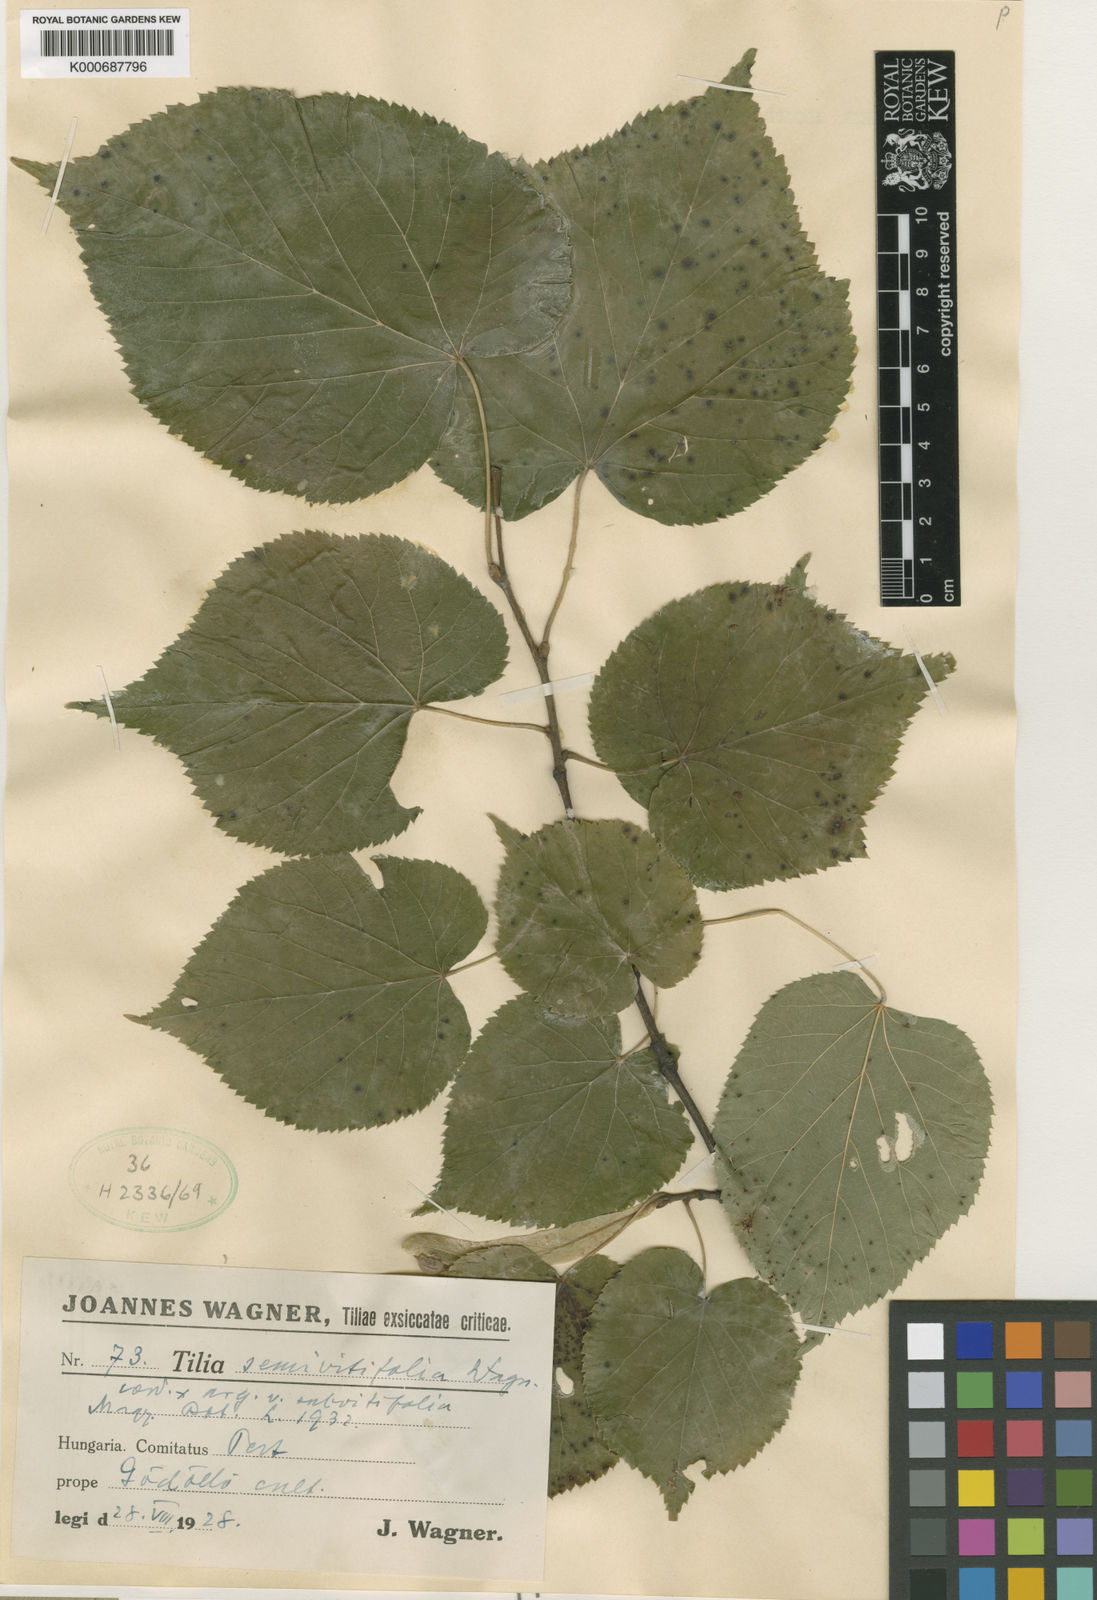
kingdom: Plantae
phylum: Tracheophyta
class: Magnoliopsida
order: Malvales
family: Malvaceae
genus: Tilia
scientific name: Tilia
